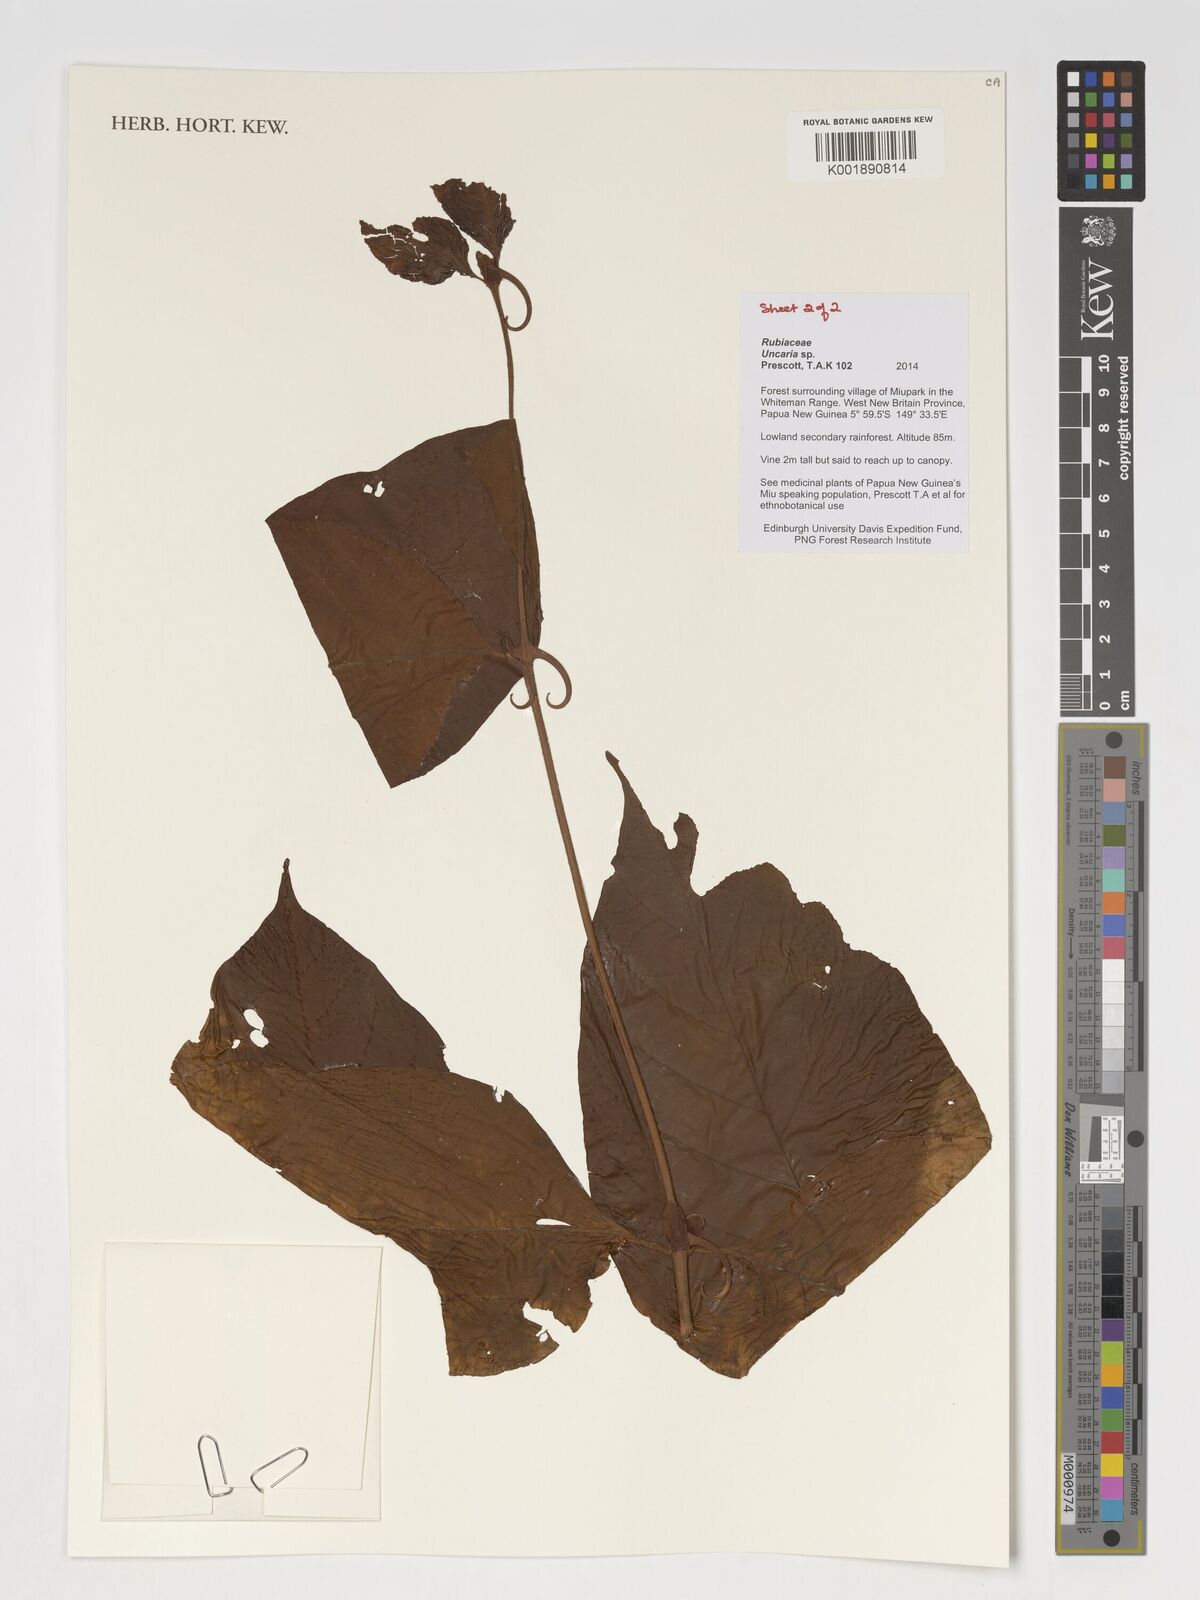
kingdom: Plantae
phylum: Tracheophyta
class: Magnoliopsida
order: Gentianales
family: Rubiaceae
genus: Uncaria
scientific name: Uncaria
